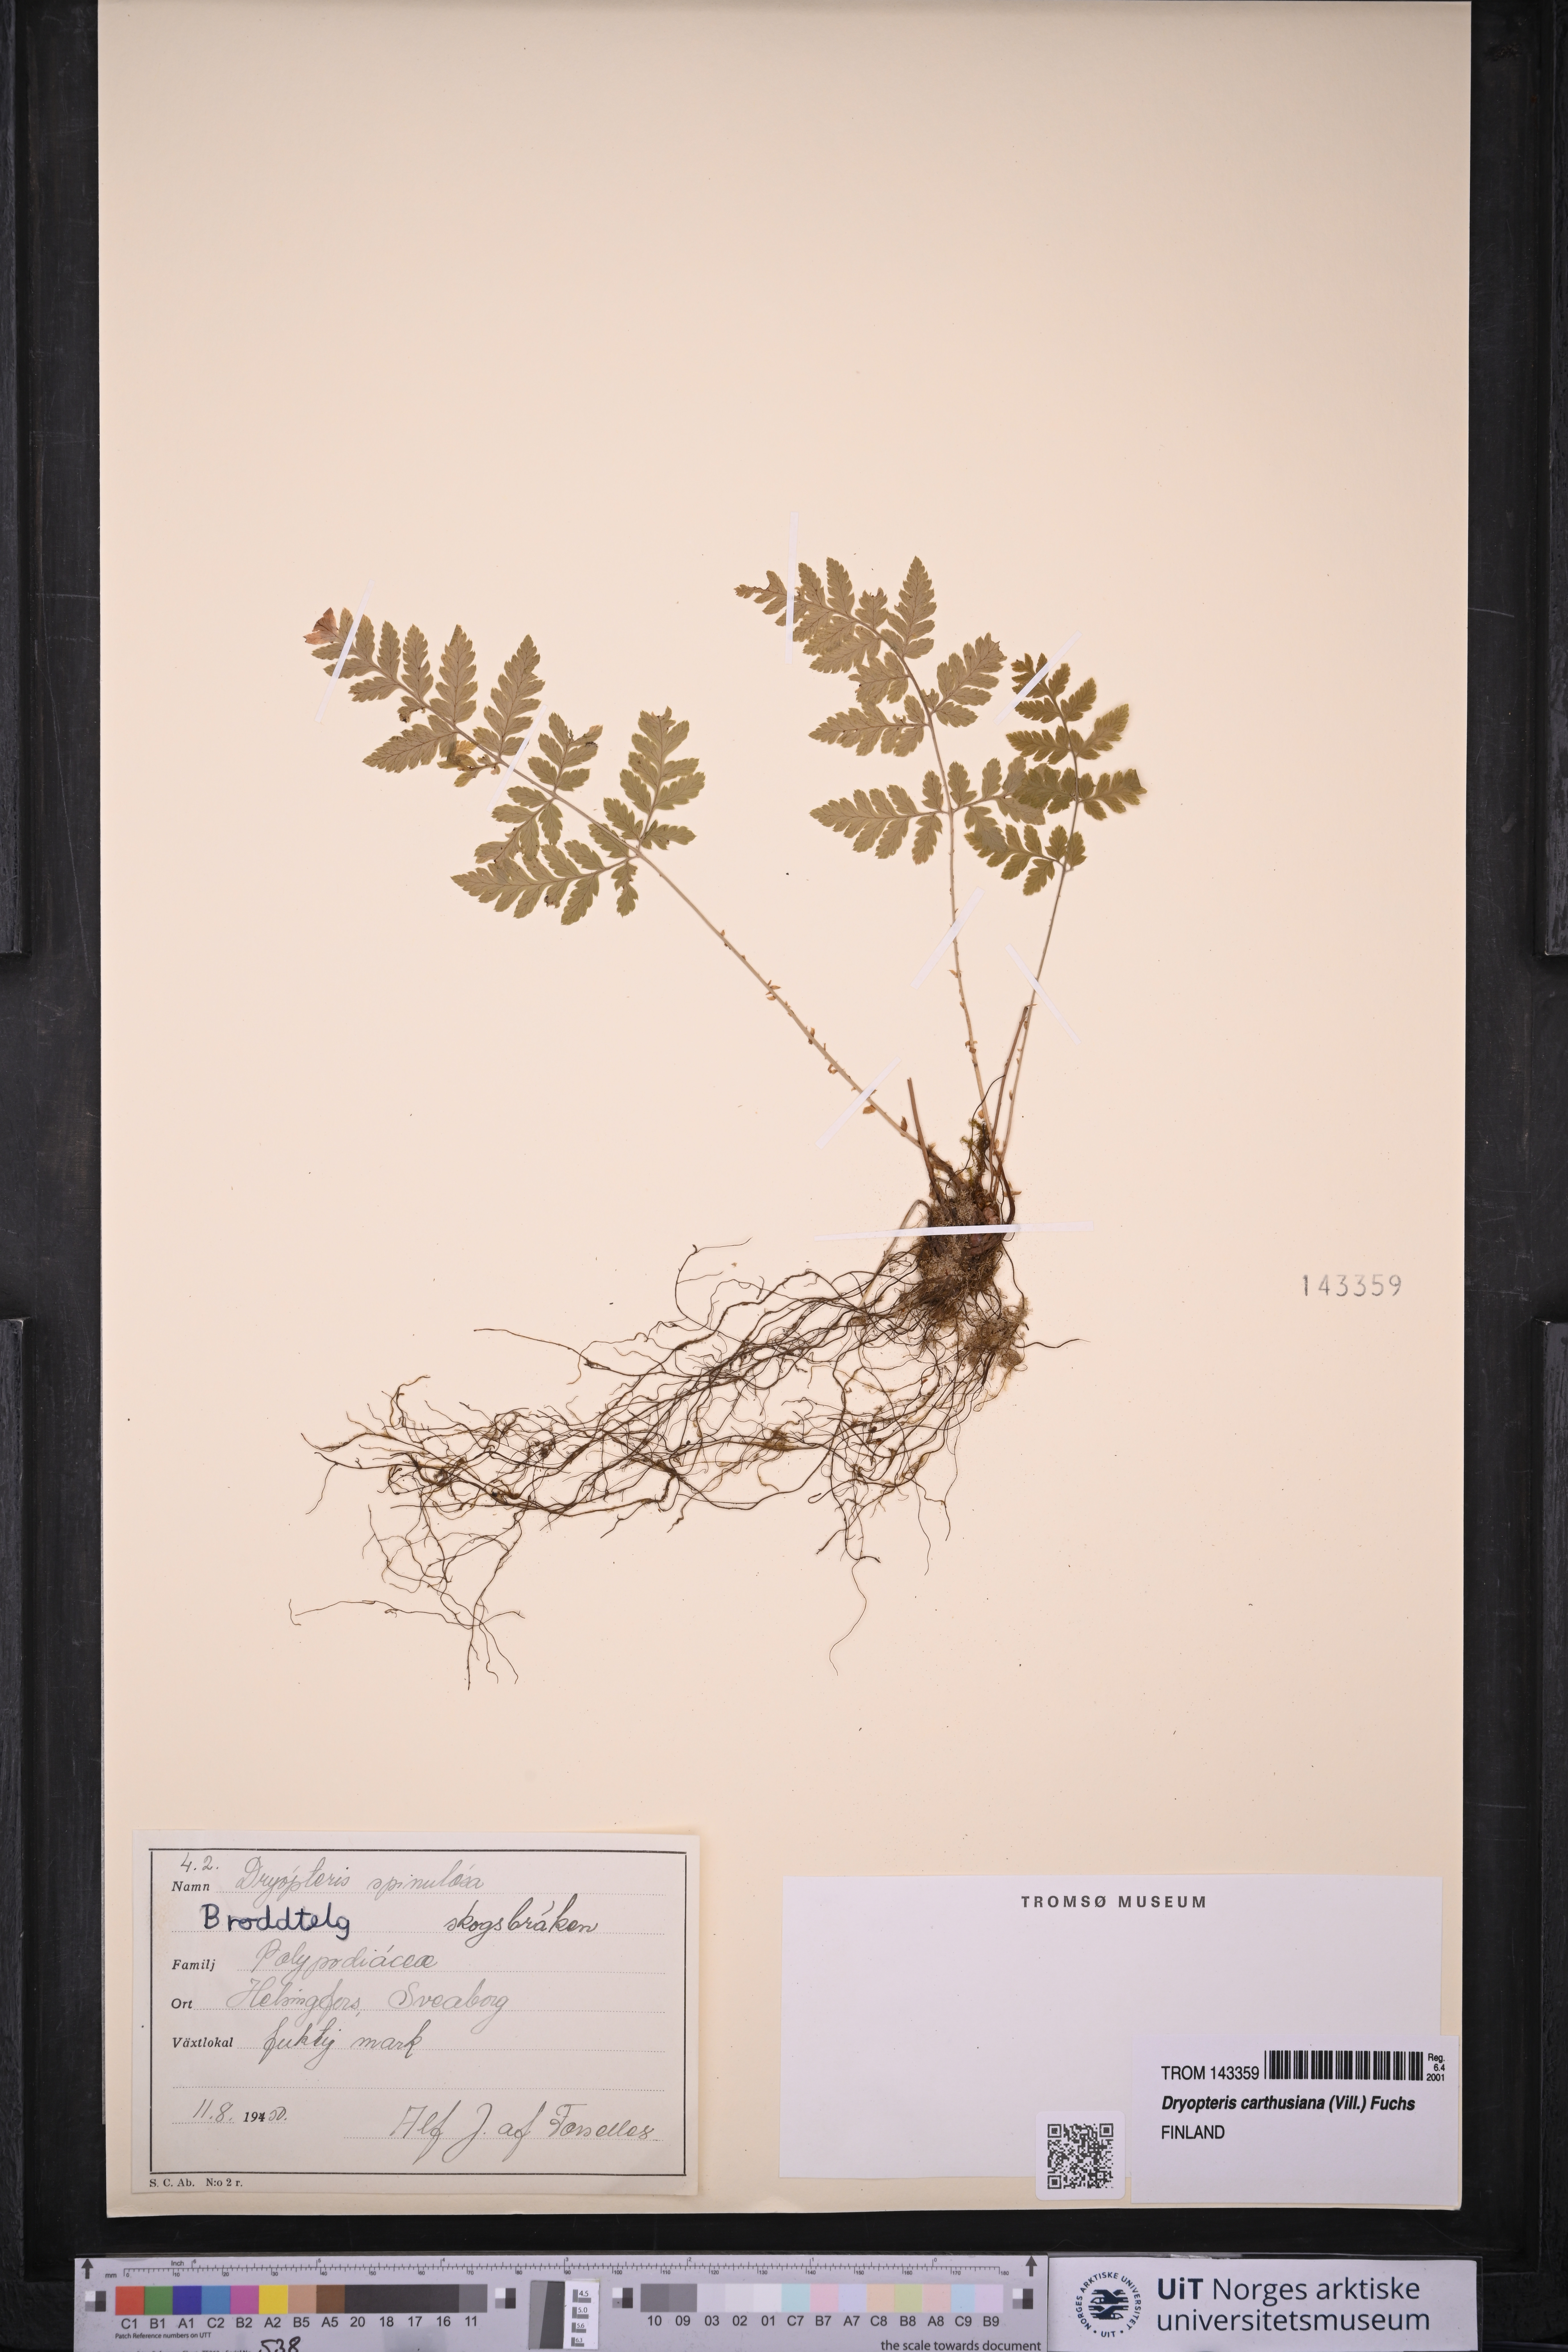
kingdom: Plantae
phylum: Tracheophyta
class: Polypodiopsida
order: Polypodiales
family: Dryopteridaceae
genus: Dryopteris
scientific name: Dryopteris carthusiana
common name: Narrow buckler-fern
